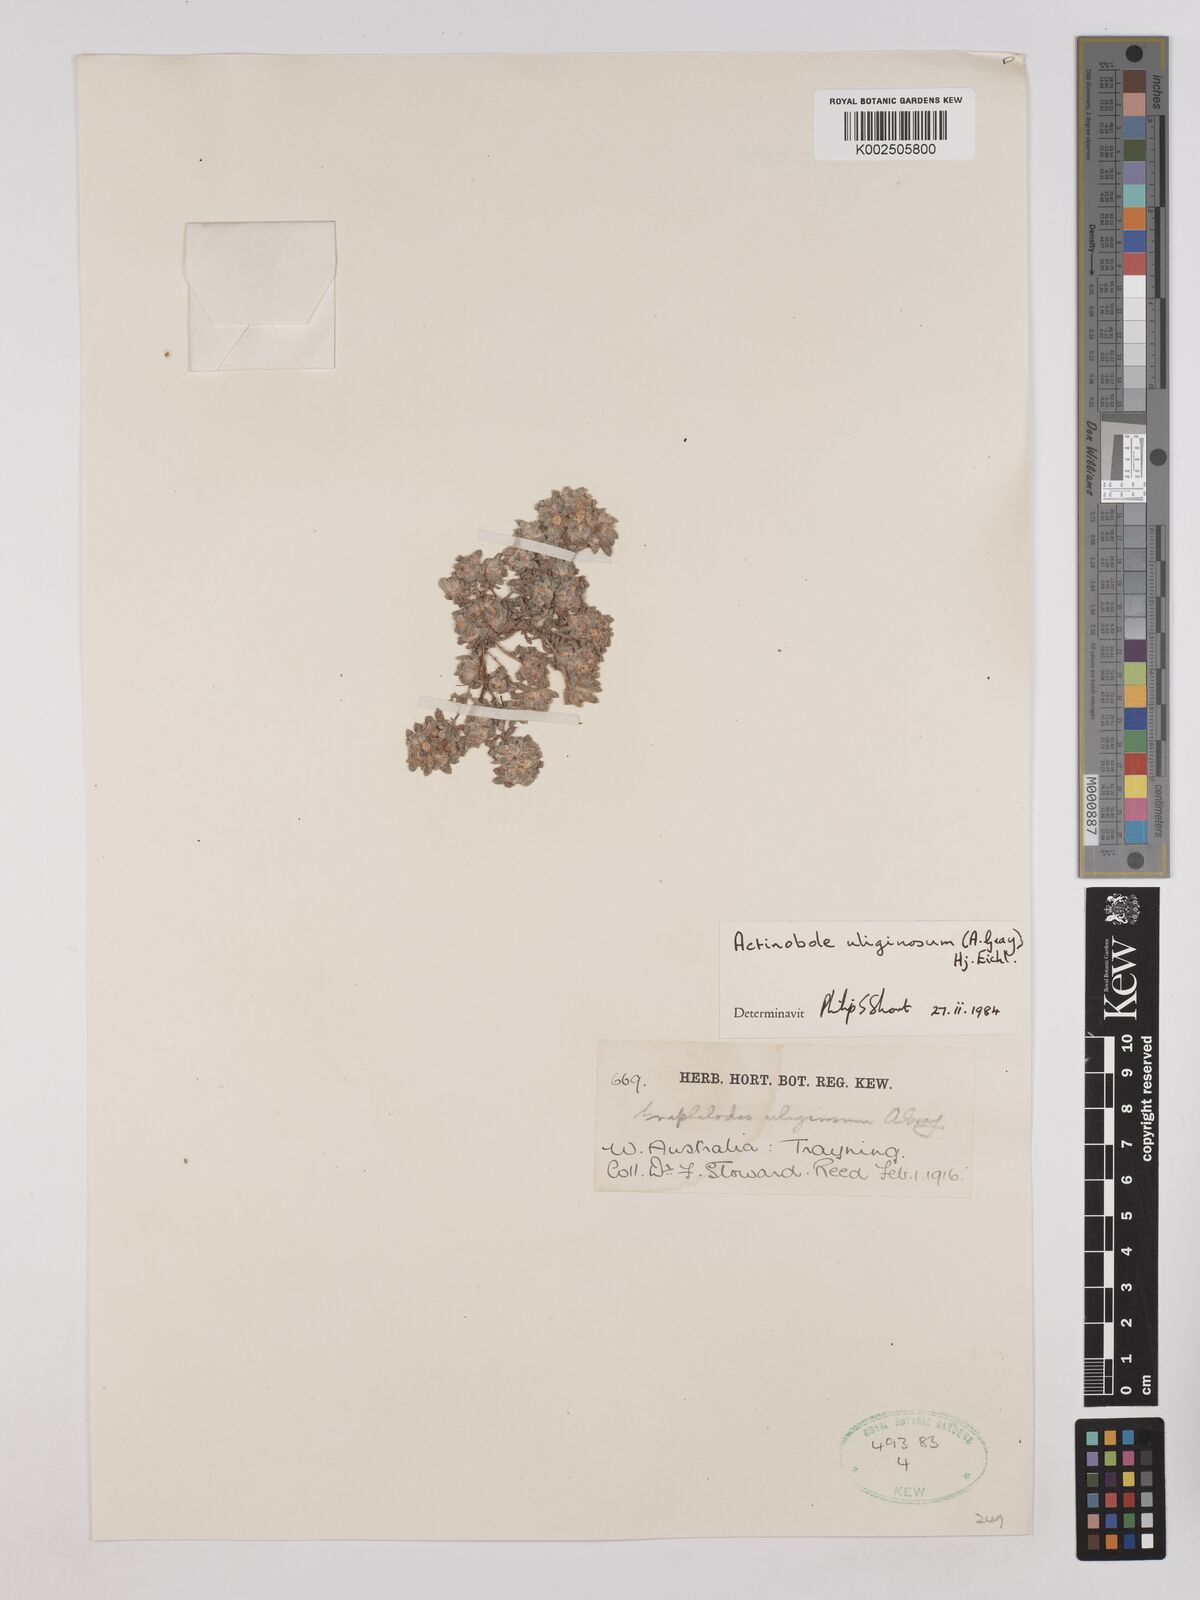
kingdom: Plantae
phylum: Tracheophyta
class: Magnoliopsida
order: Asterales
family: Asteraceae
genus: Actinobole
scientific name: Actinobole uliginosum
